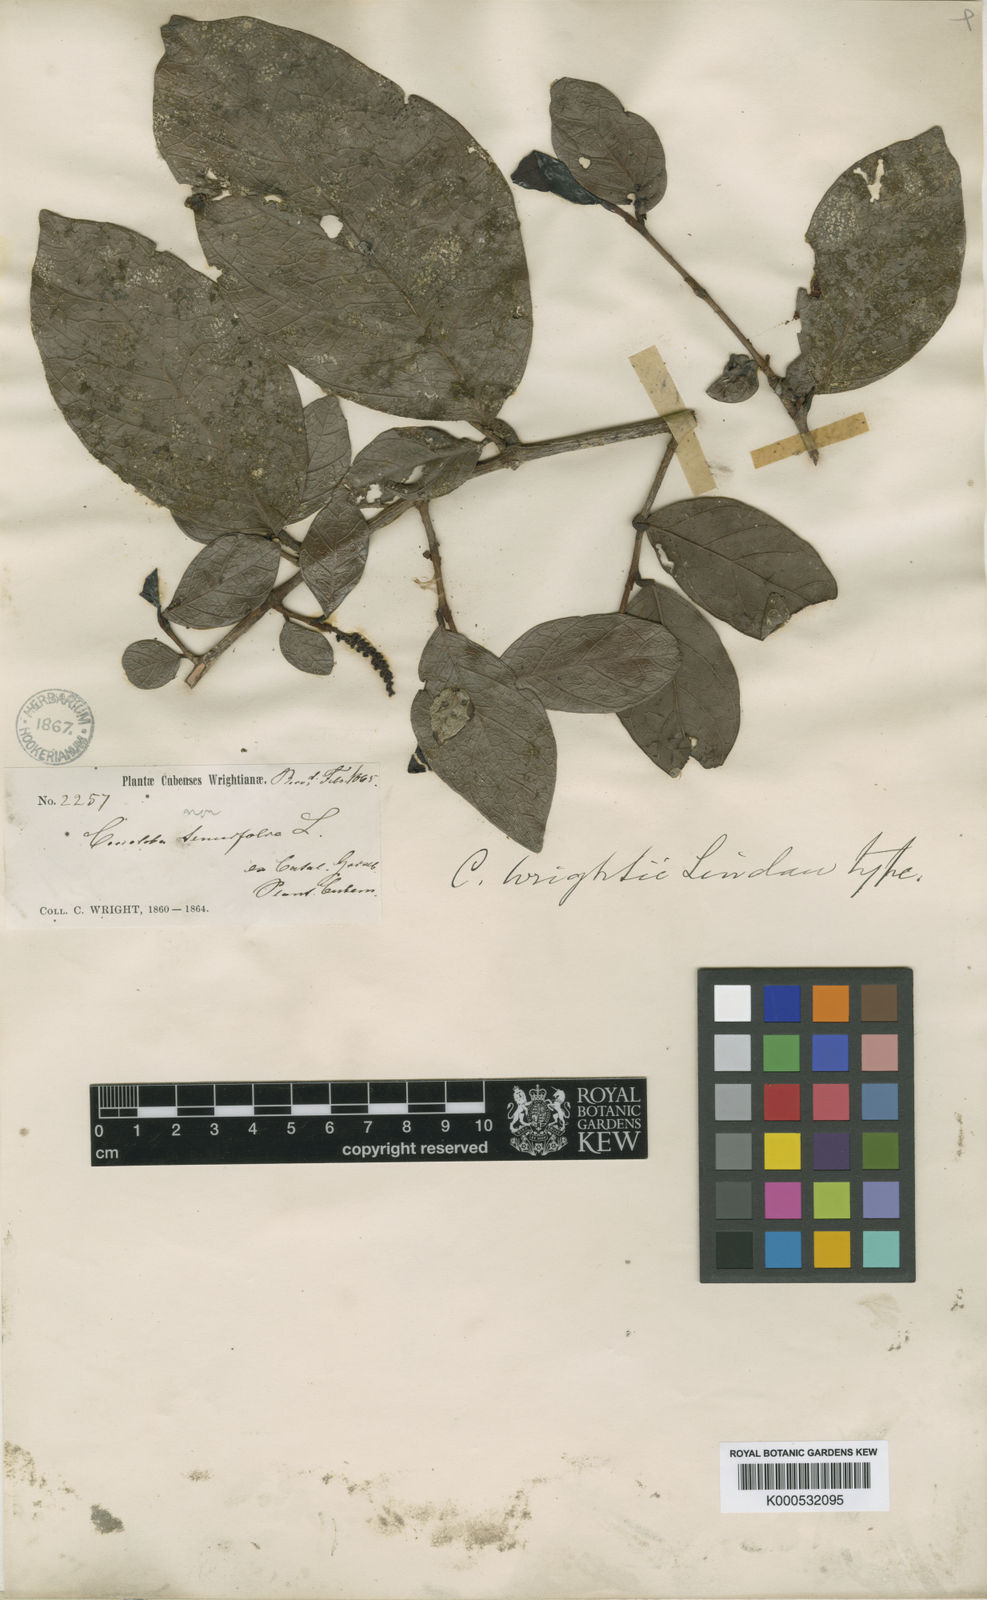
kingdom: Plantae
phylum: Tracheophyta
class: Magnoliopsida
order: Caryophyllales
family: Polygonaceae
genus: Coccoloba
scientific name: Coccoloba wrightii
